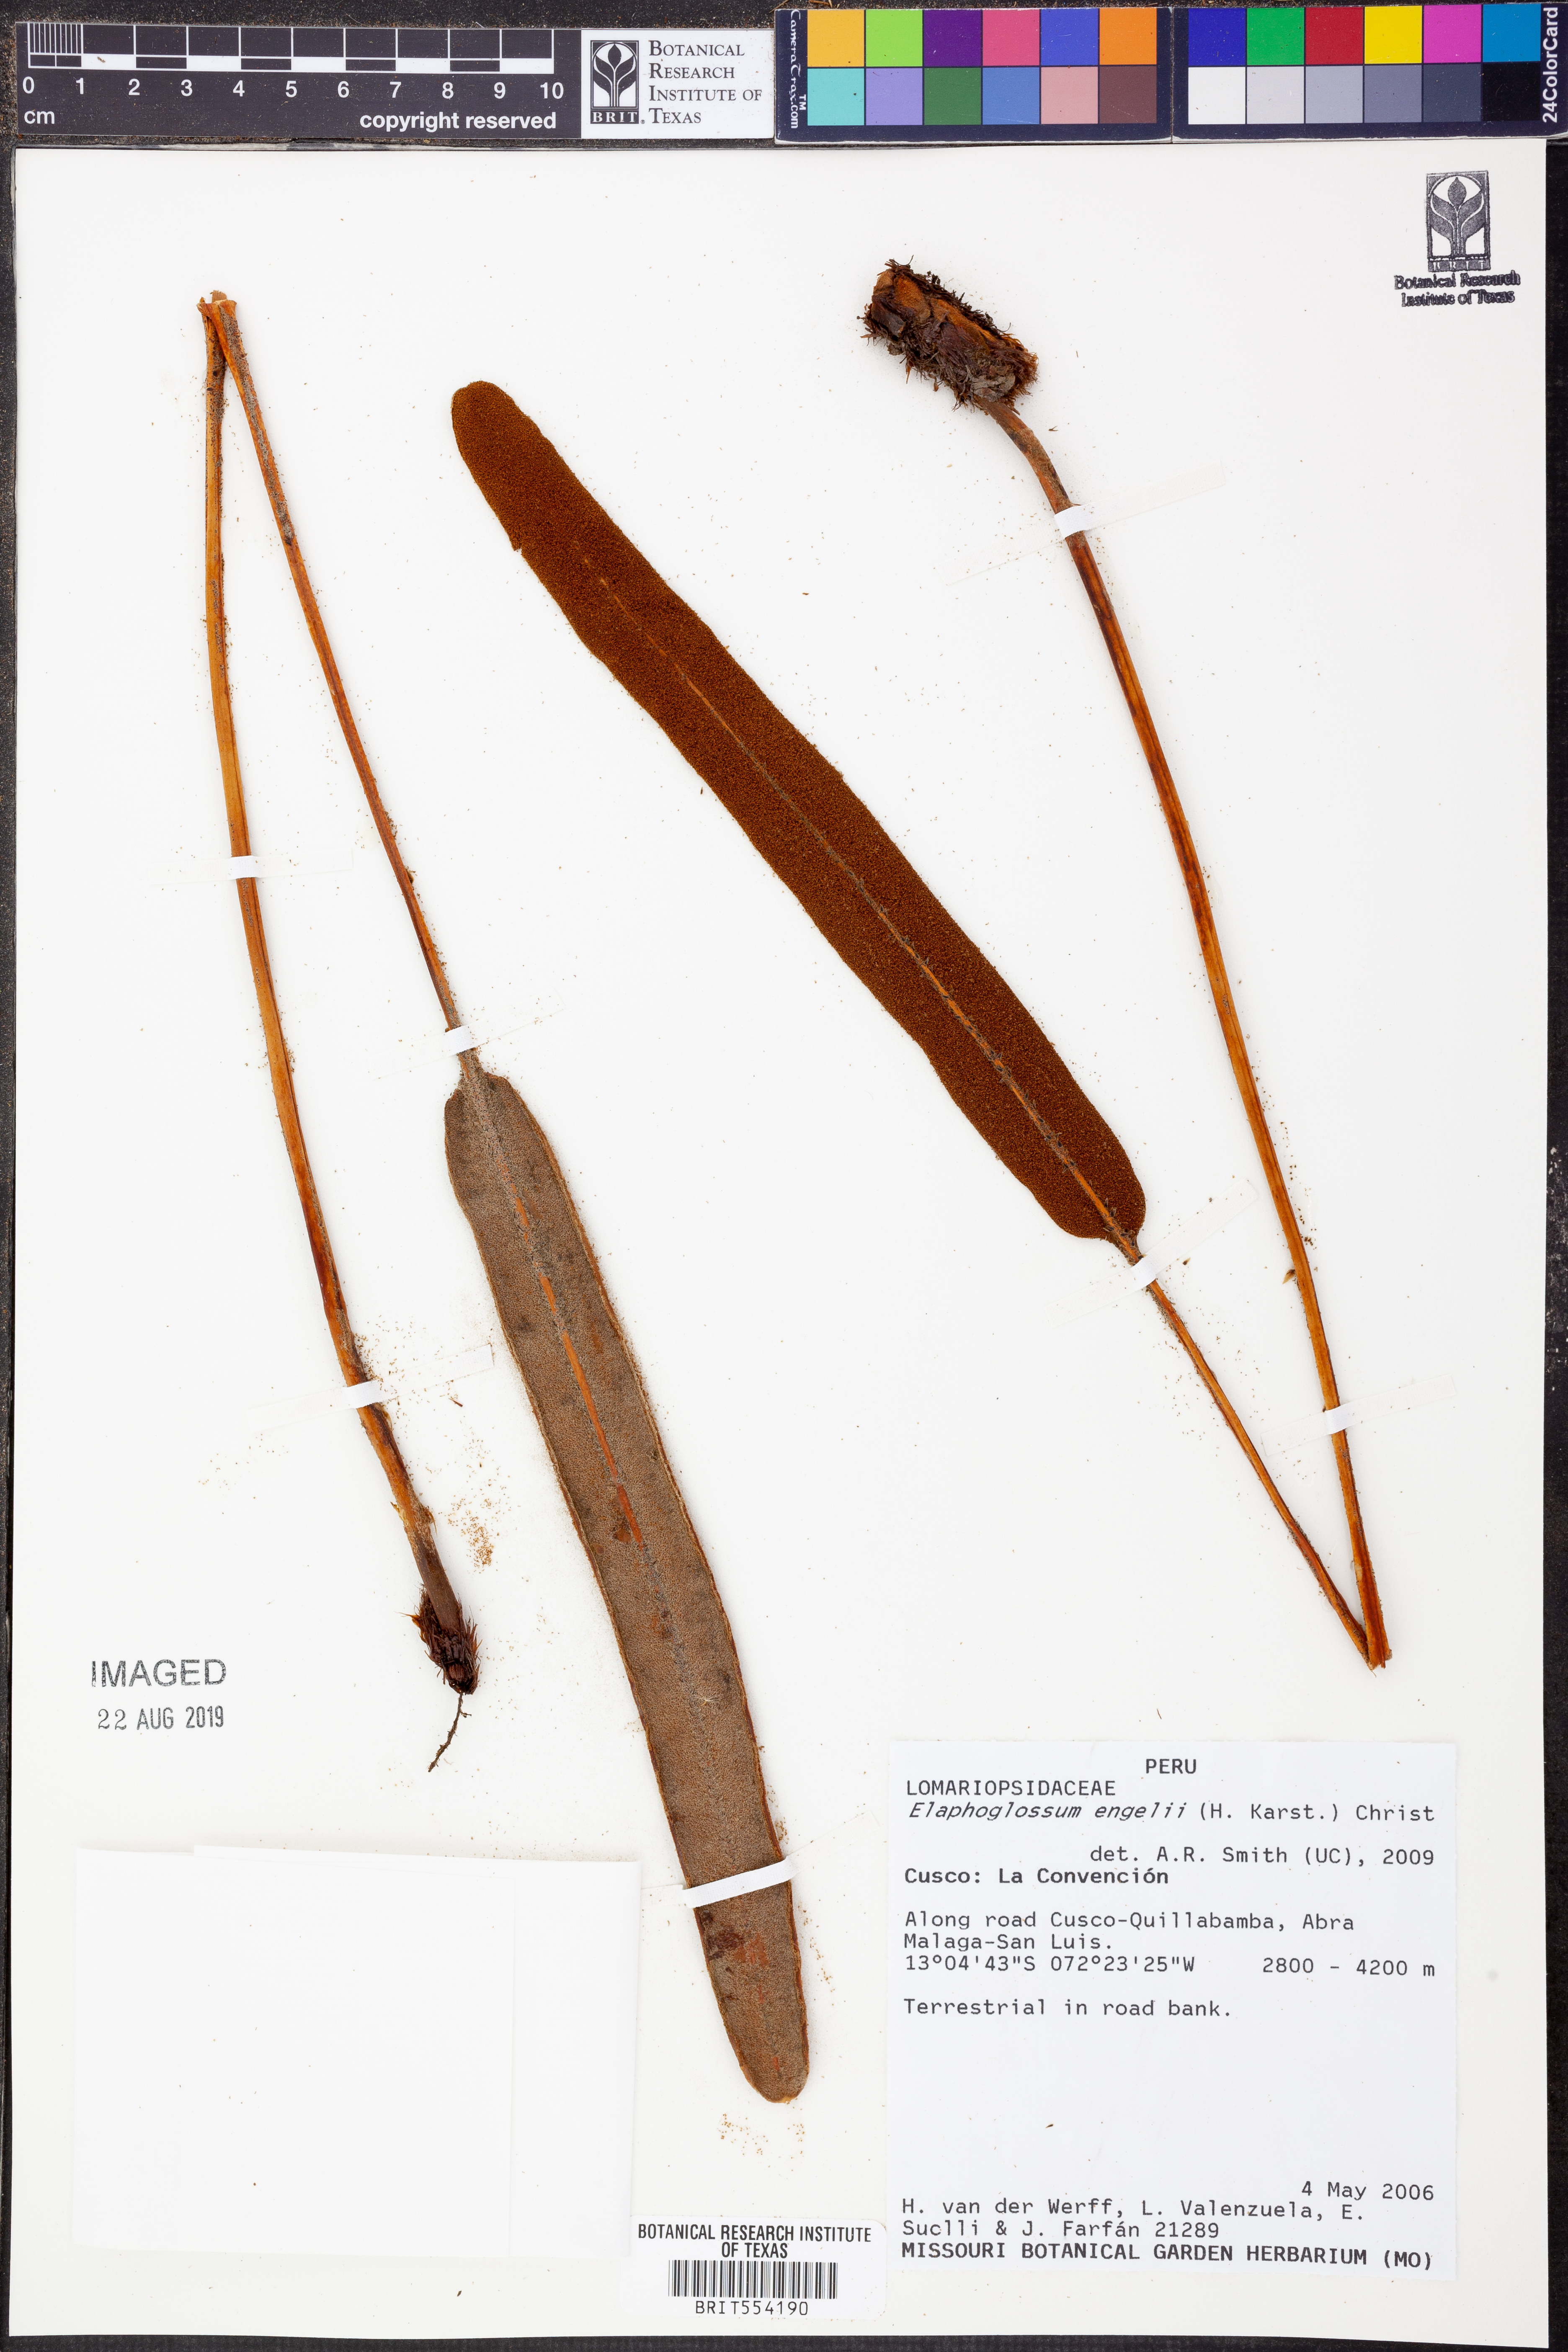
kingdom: Plantae
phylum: Tracheophyta
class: Polypodiopsida
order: Polypodiales
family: Dryopteridaceae
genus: Elaphoglossum
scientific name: Elaphoglossum ruficomum
